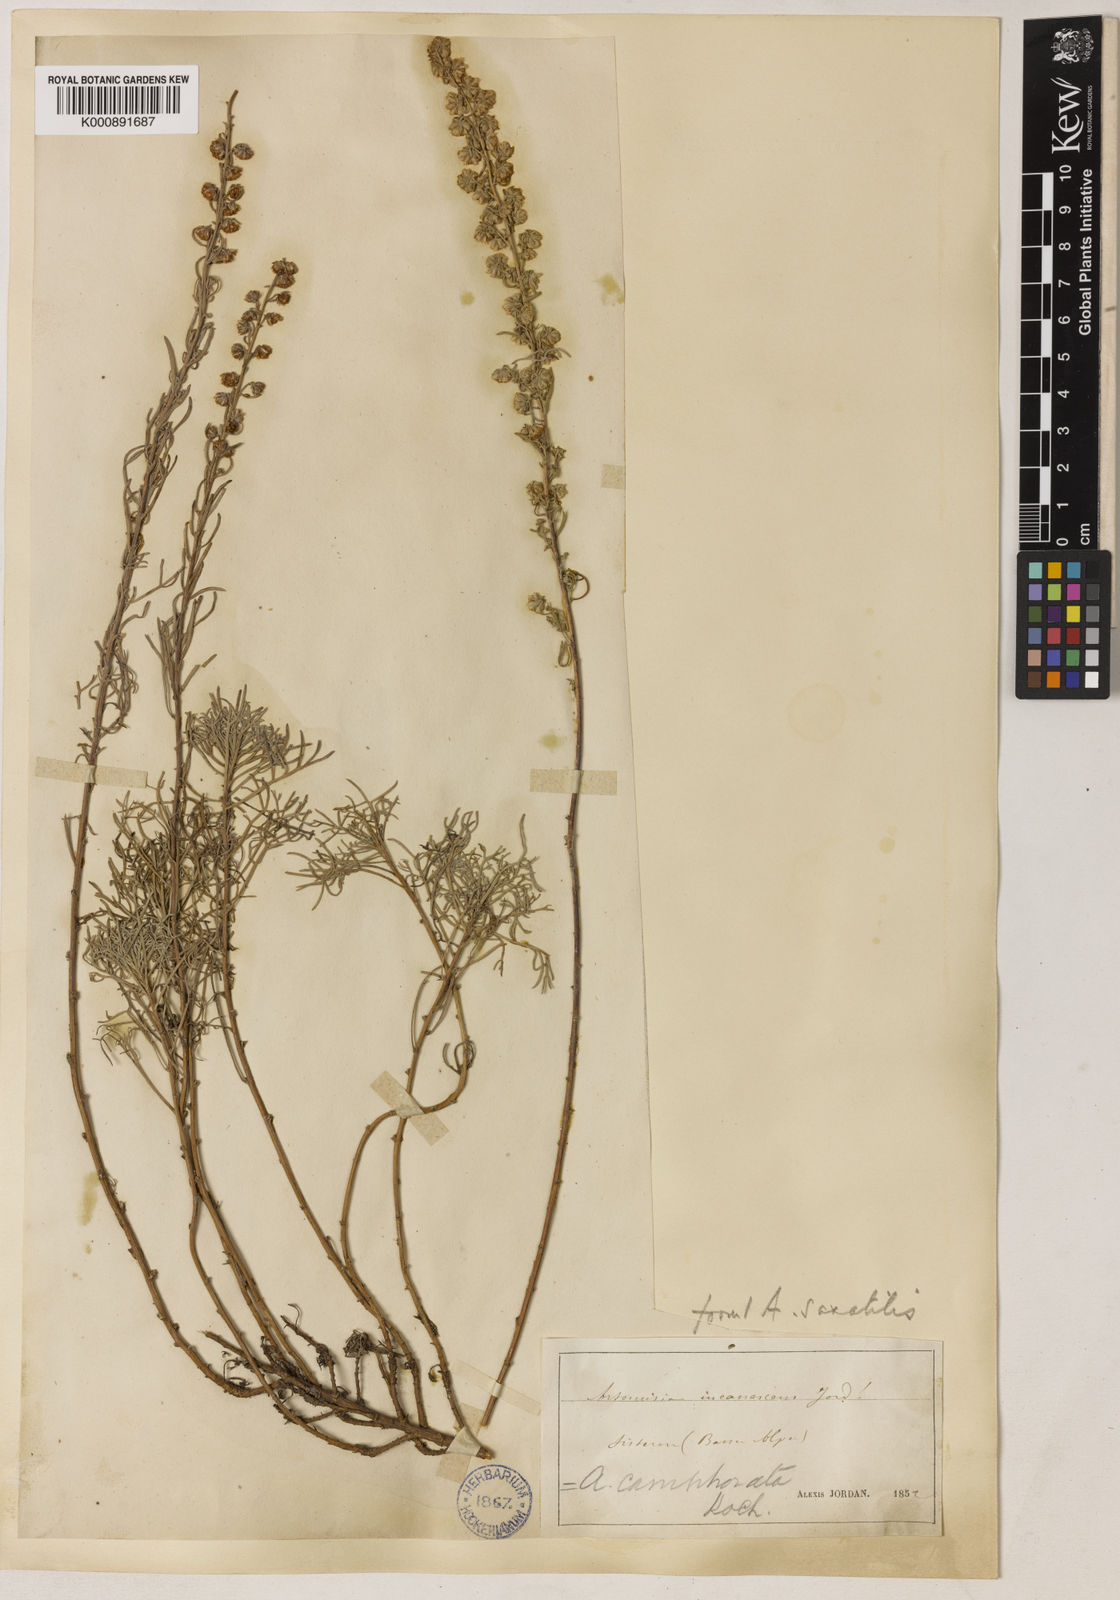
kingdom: Plantae
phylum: Tracheophyta
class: Magnoliopsida
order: Asterales
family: Asteraceae
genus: Artemisia
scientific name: Artemisia alba
